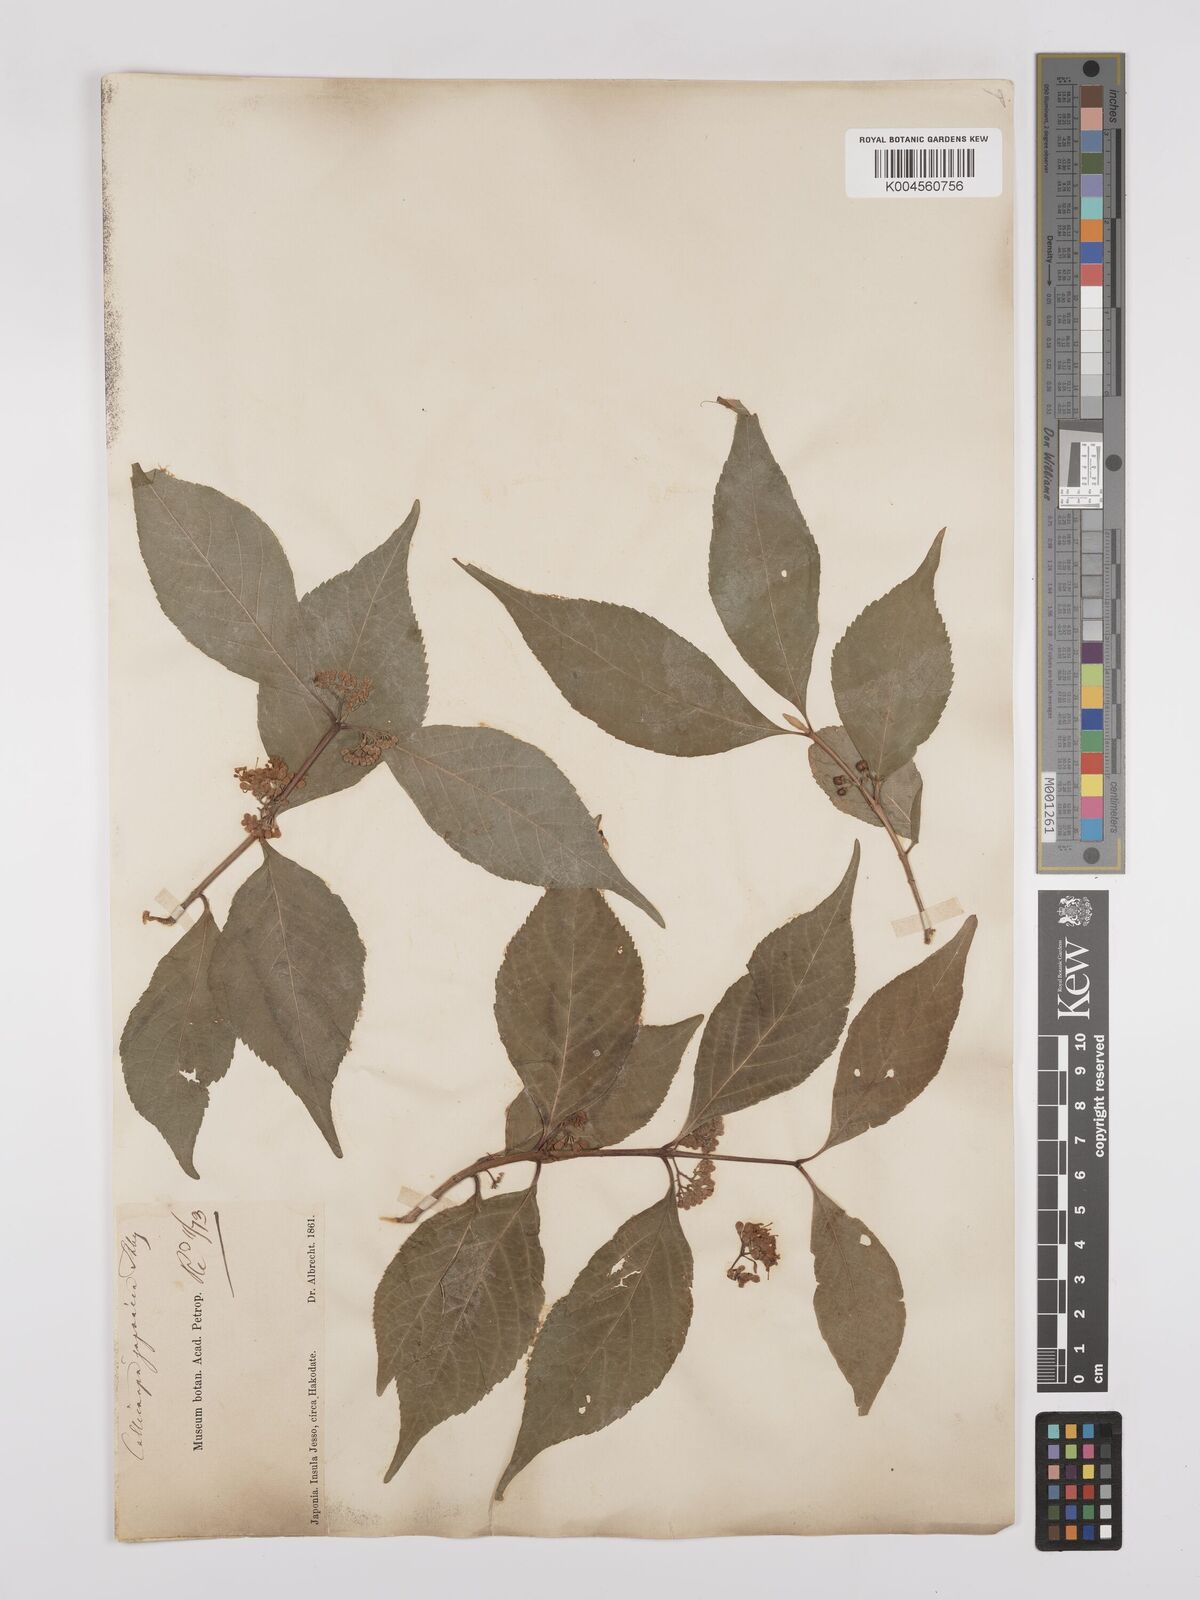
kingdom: Plantae
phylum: Tracheophyta
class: Magnoliopsida
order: Lamiales
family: Lamiaceae
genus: Callicarpa
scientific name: Callicarpa japonica
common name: Japanese beauty-berry
